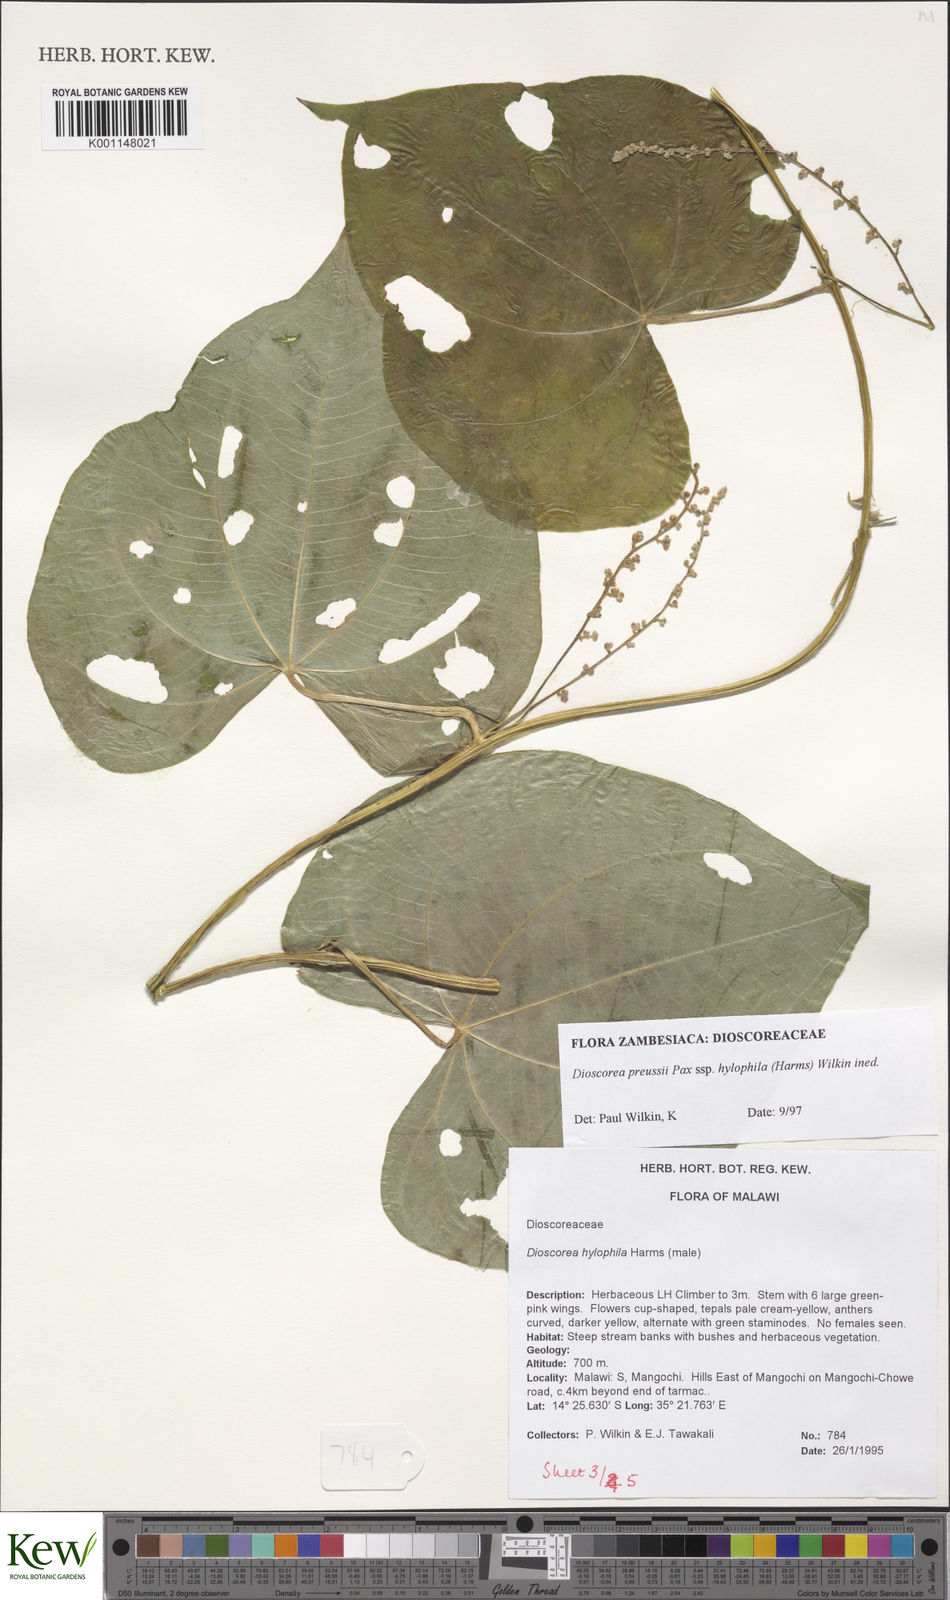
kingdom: Plantae
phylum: Tracheophyta
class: Liliopsida
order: Dioscoreales
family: Dioscoreaceae
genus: Dioscorea
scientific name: Dioscorea preussii
